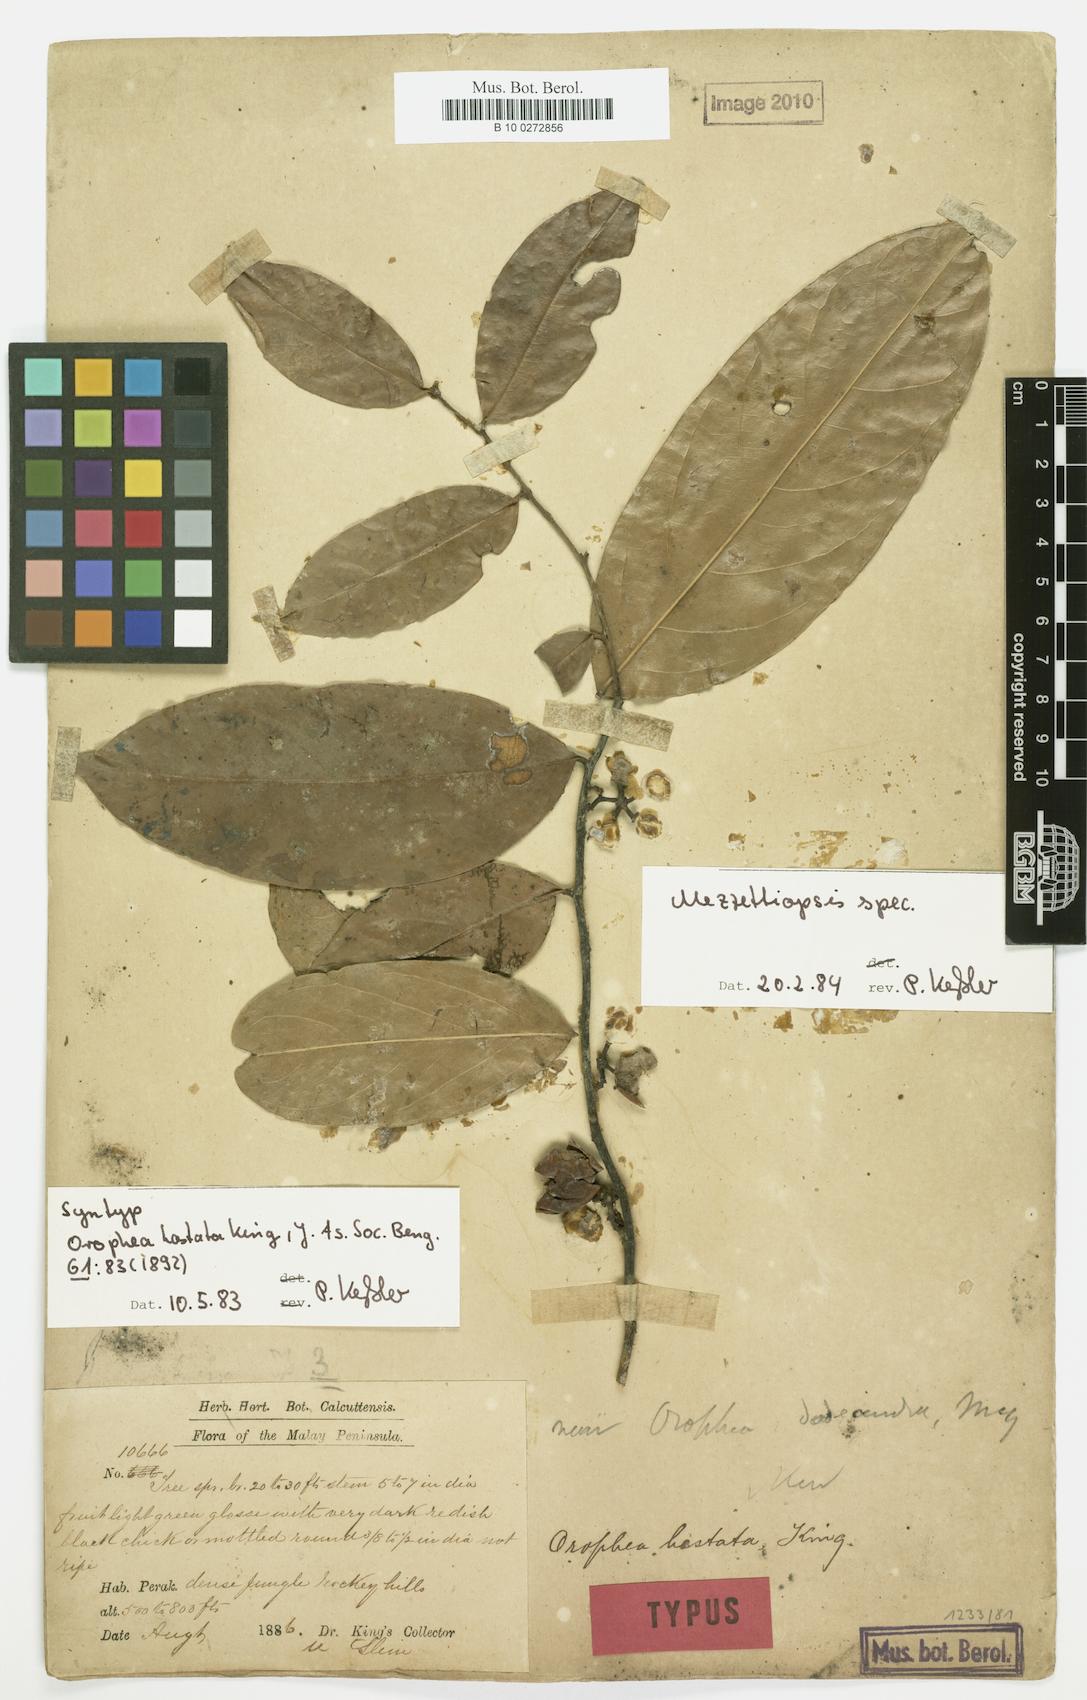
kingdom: Plantae
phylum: Tracheophyta
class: Magnoliopsida
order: Magnoliales
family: Annonaceae
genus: Orophea
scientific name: Orophea hastata
